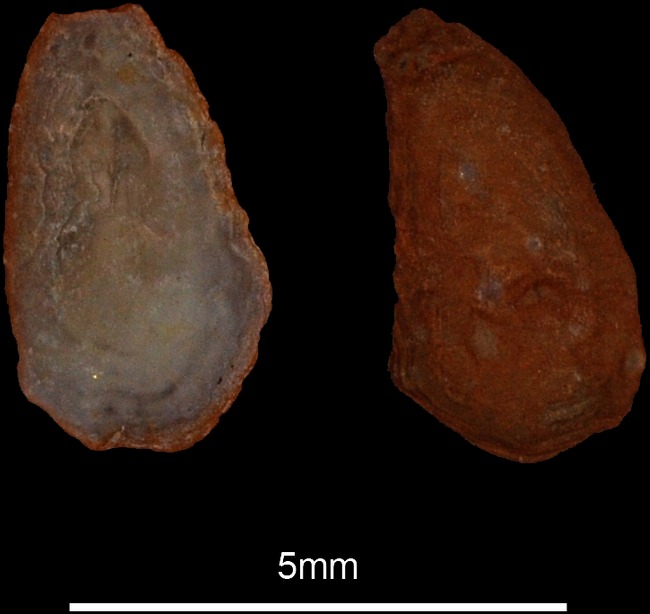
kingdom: Animalia
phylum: Chordata
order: Beloniformes
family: Belonidae
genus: Belone
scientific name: Belone belone
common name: Garfish
